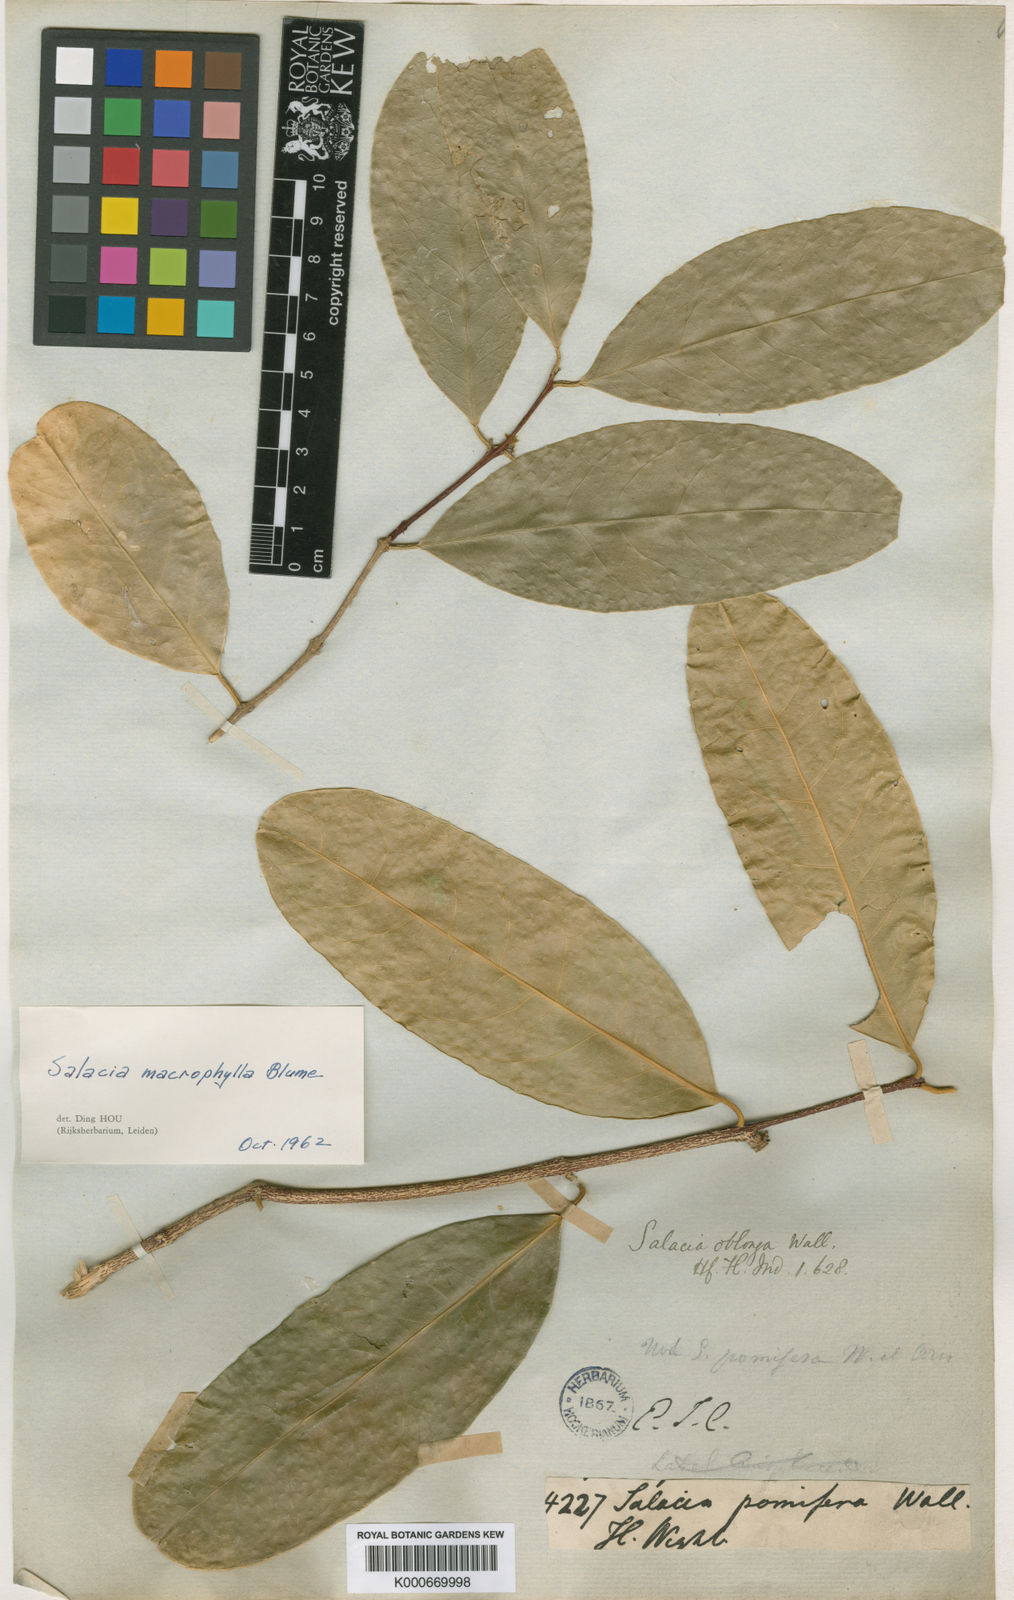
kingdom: Plantae
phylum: Tracheophyta
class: Magnoliopsida
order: Celastrales
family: Celastraceae
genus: Salacia
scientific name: Salacia macrophylla
